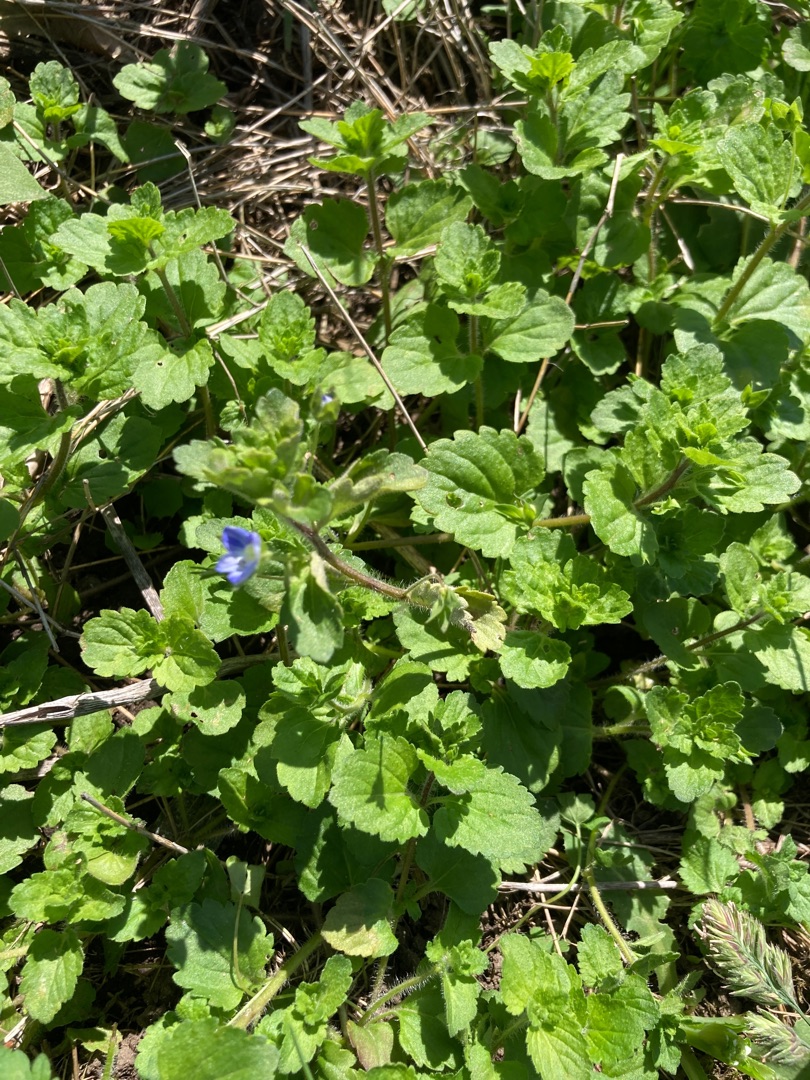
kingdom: Plantae
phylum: Tracheophyta
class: Magnoliopsida
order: Lamiales
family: Plantaginaceae
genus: Veronica
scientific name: Veronica persica
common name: Storkronet ærenpris
